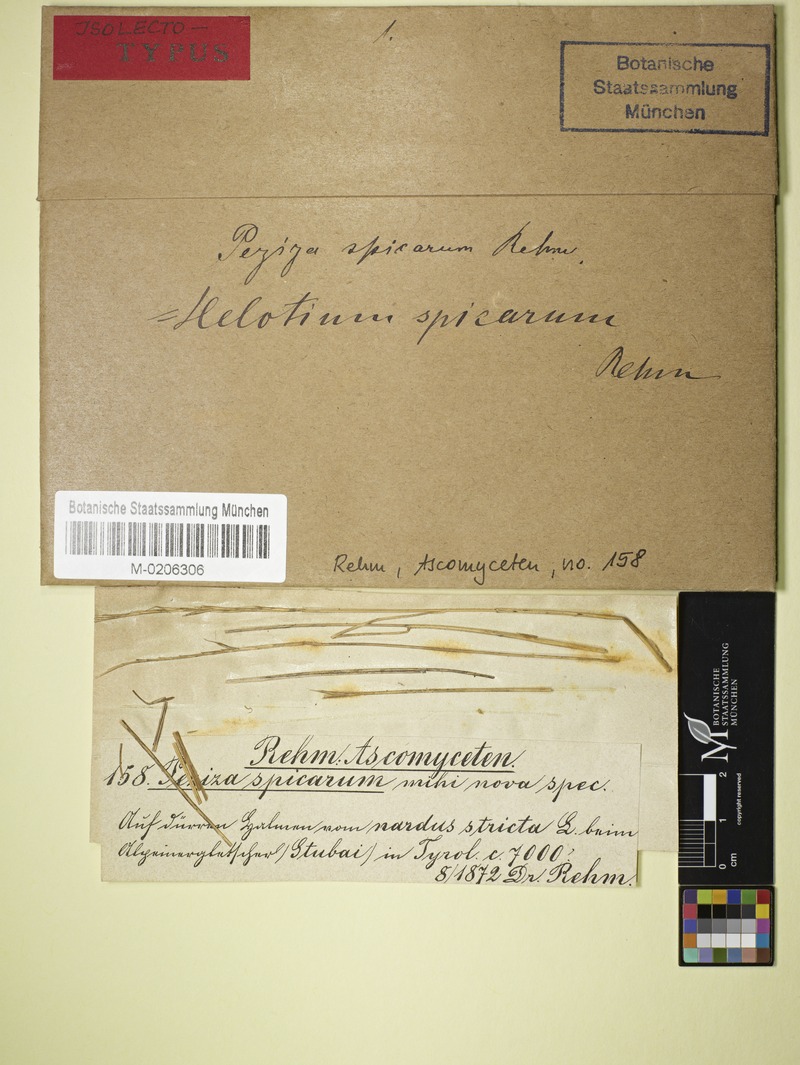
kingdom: Fungi
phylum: Ascomycota
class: Leotiomycetes
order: Helotiales
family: Helotiaceae
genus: Crocicreas
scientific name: Crocicreas spicarum
